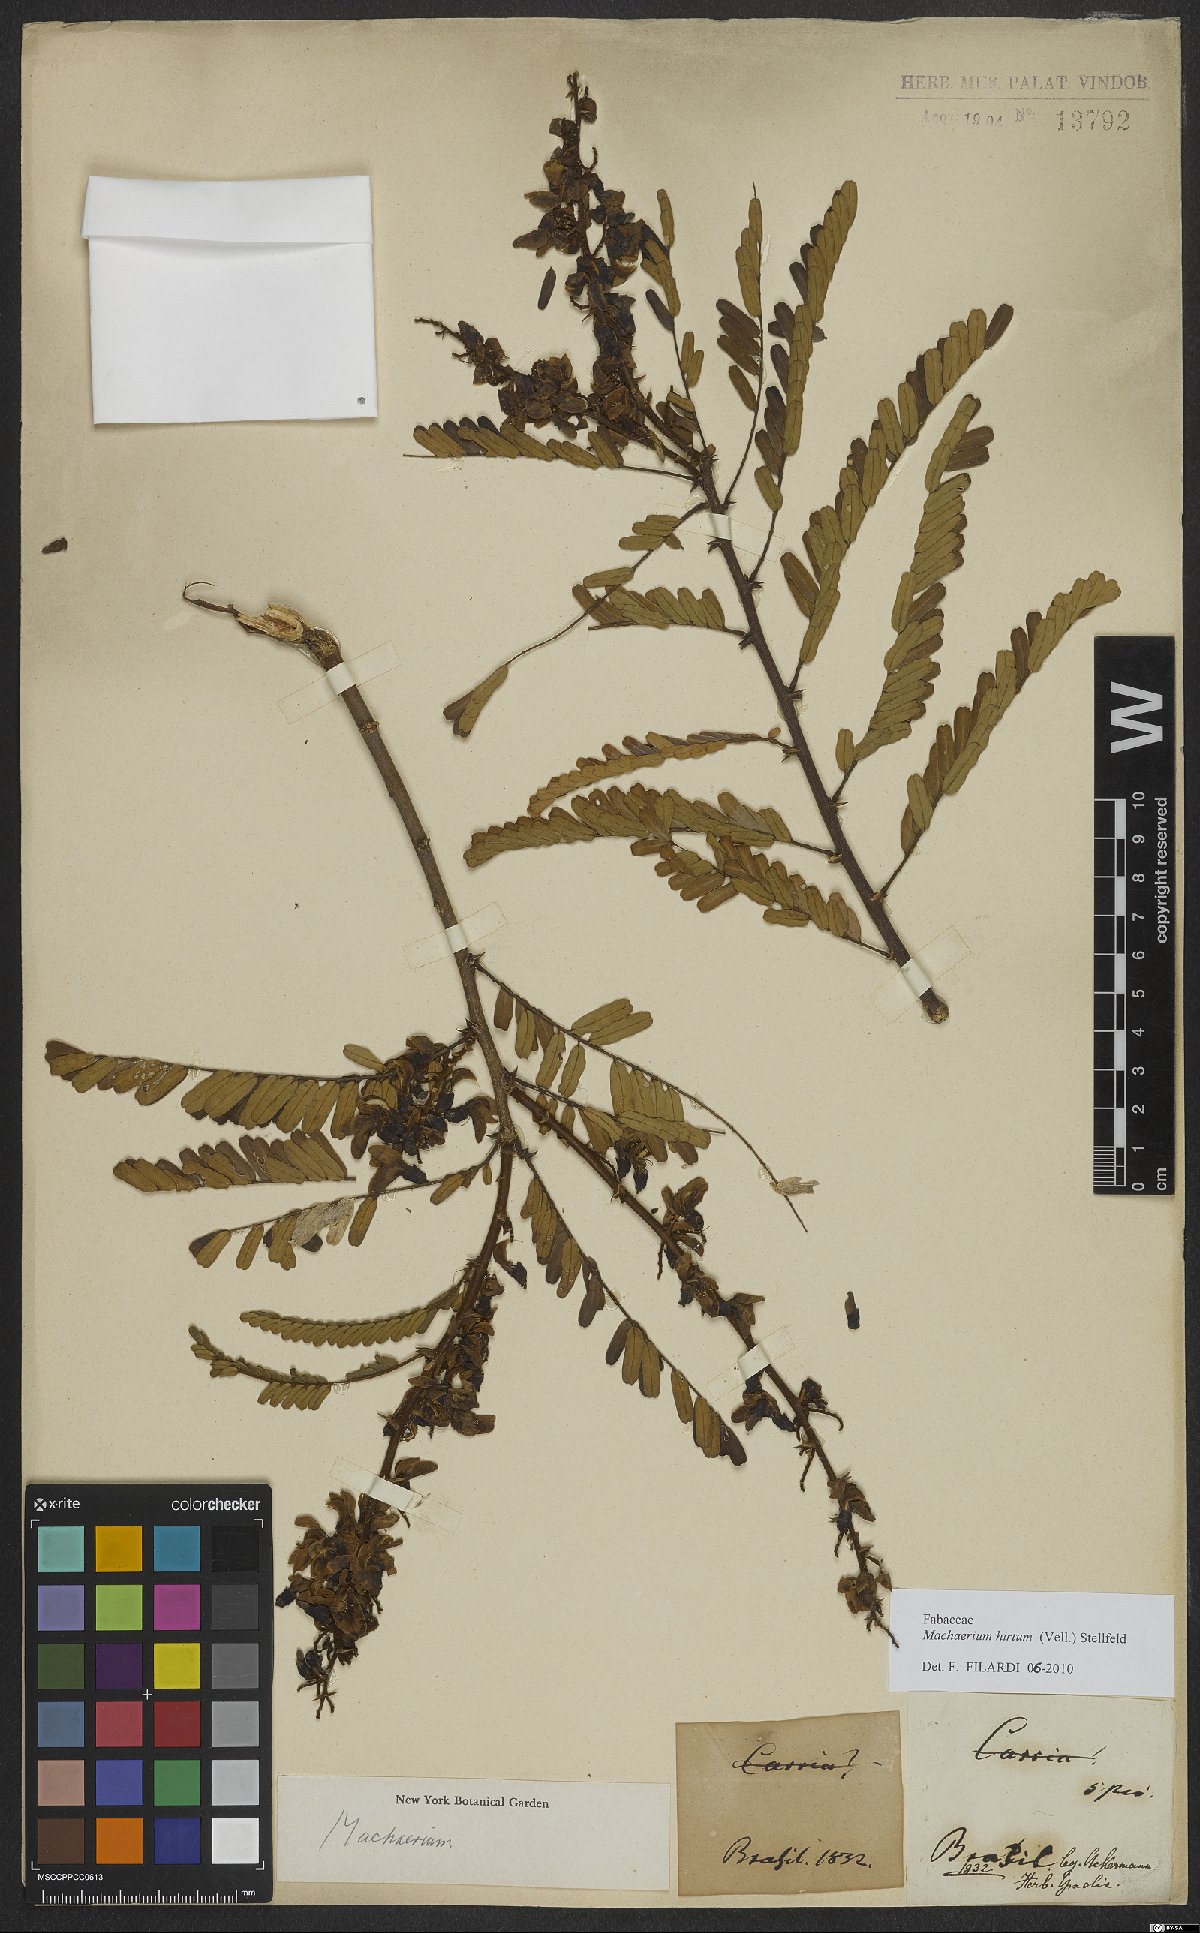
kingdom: Plantae
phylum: Tracheophyta
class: Magnoliopsida
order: Fabales
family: Fabaceae
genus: Machaerium
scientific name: Machaerium hirtum
